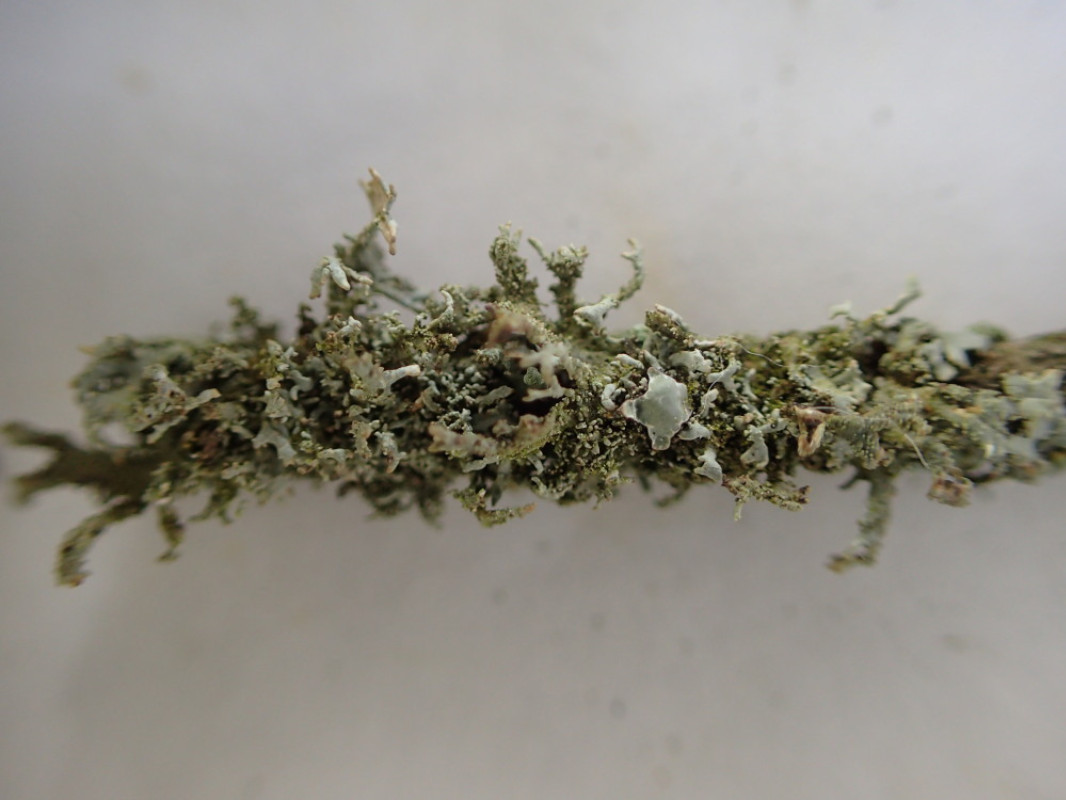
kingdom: Fungi
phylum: Ascomycota
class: Lecanoromycetes
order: Caliciales
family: Physciaceae
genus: Physcia
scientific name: Physcia tenella
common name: spæd rosetlav
